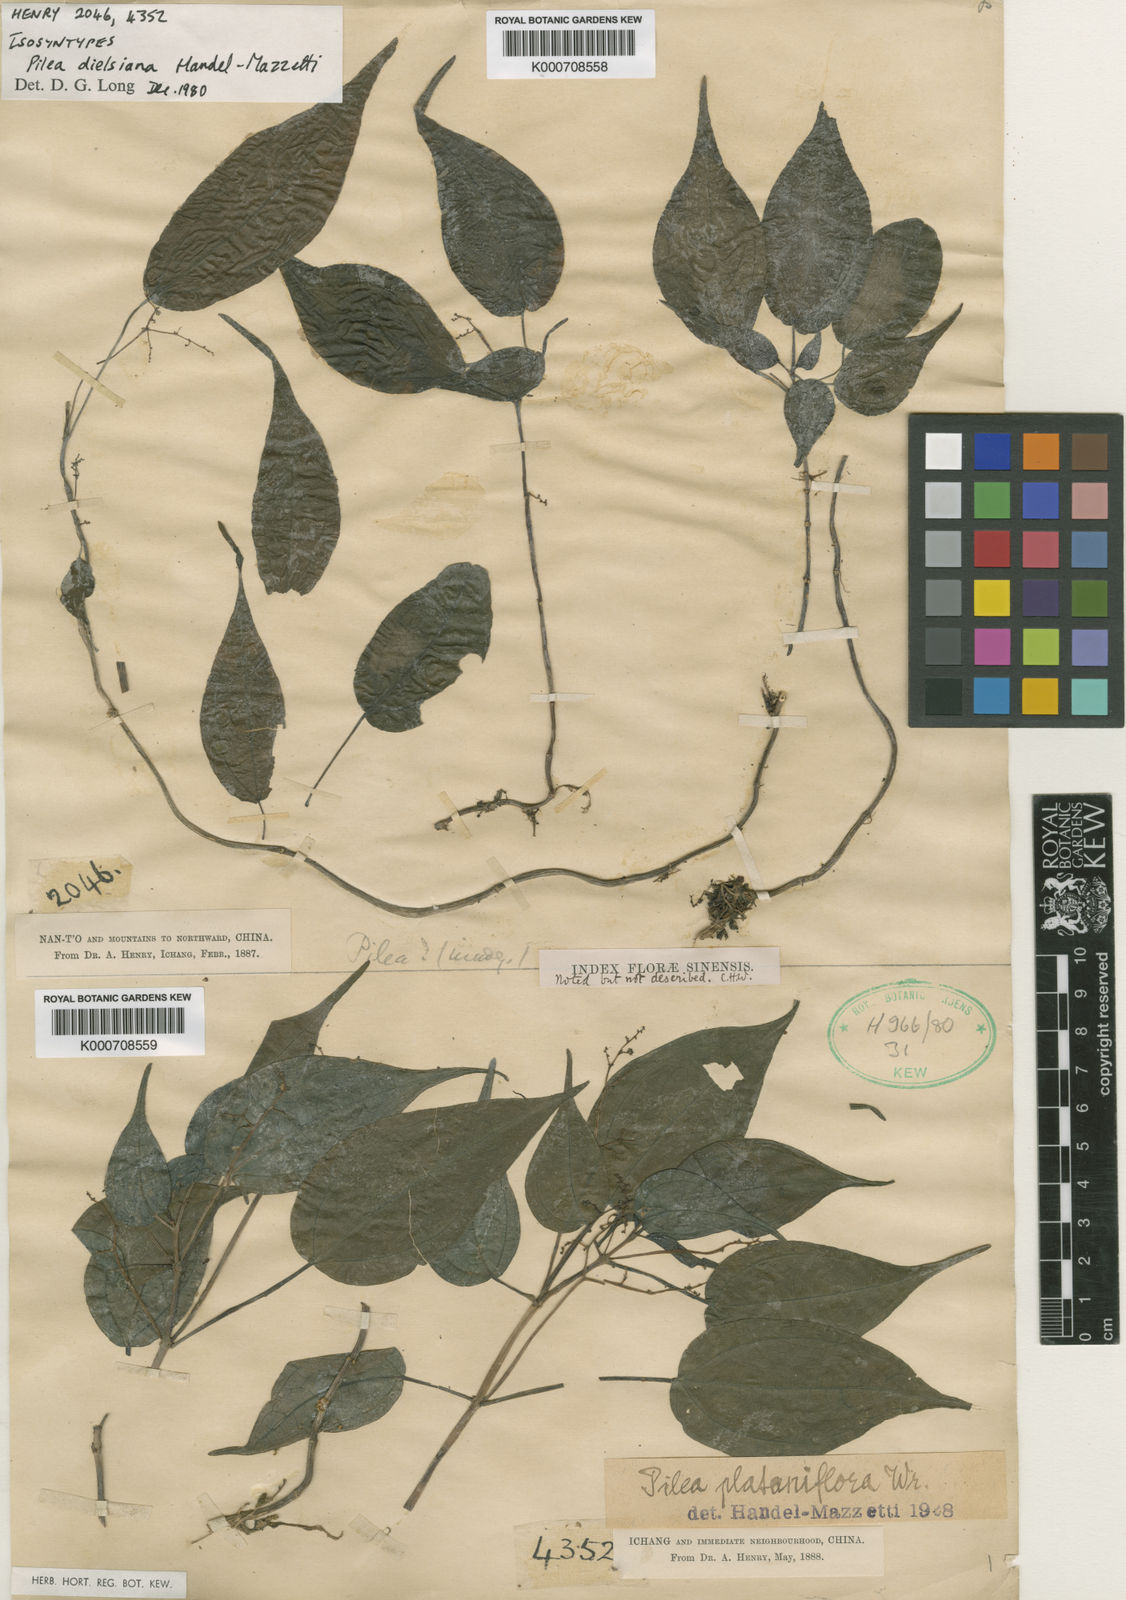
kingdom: Plantae
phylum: Tracheophyta
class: Magnoliopsida
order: Rosales
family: Urticaceae
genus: Pilea
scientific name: Pilea plataniflora
